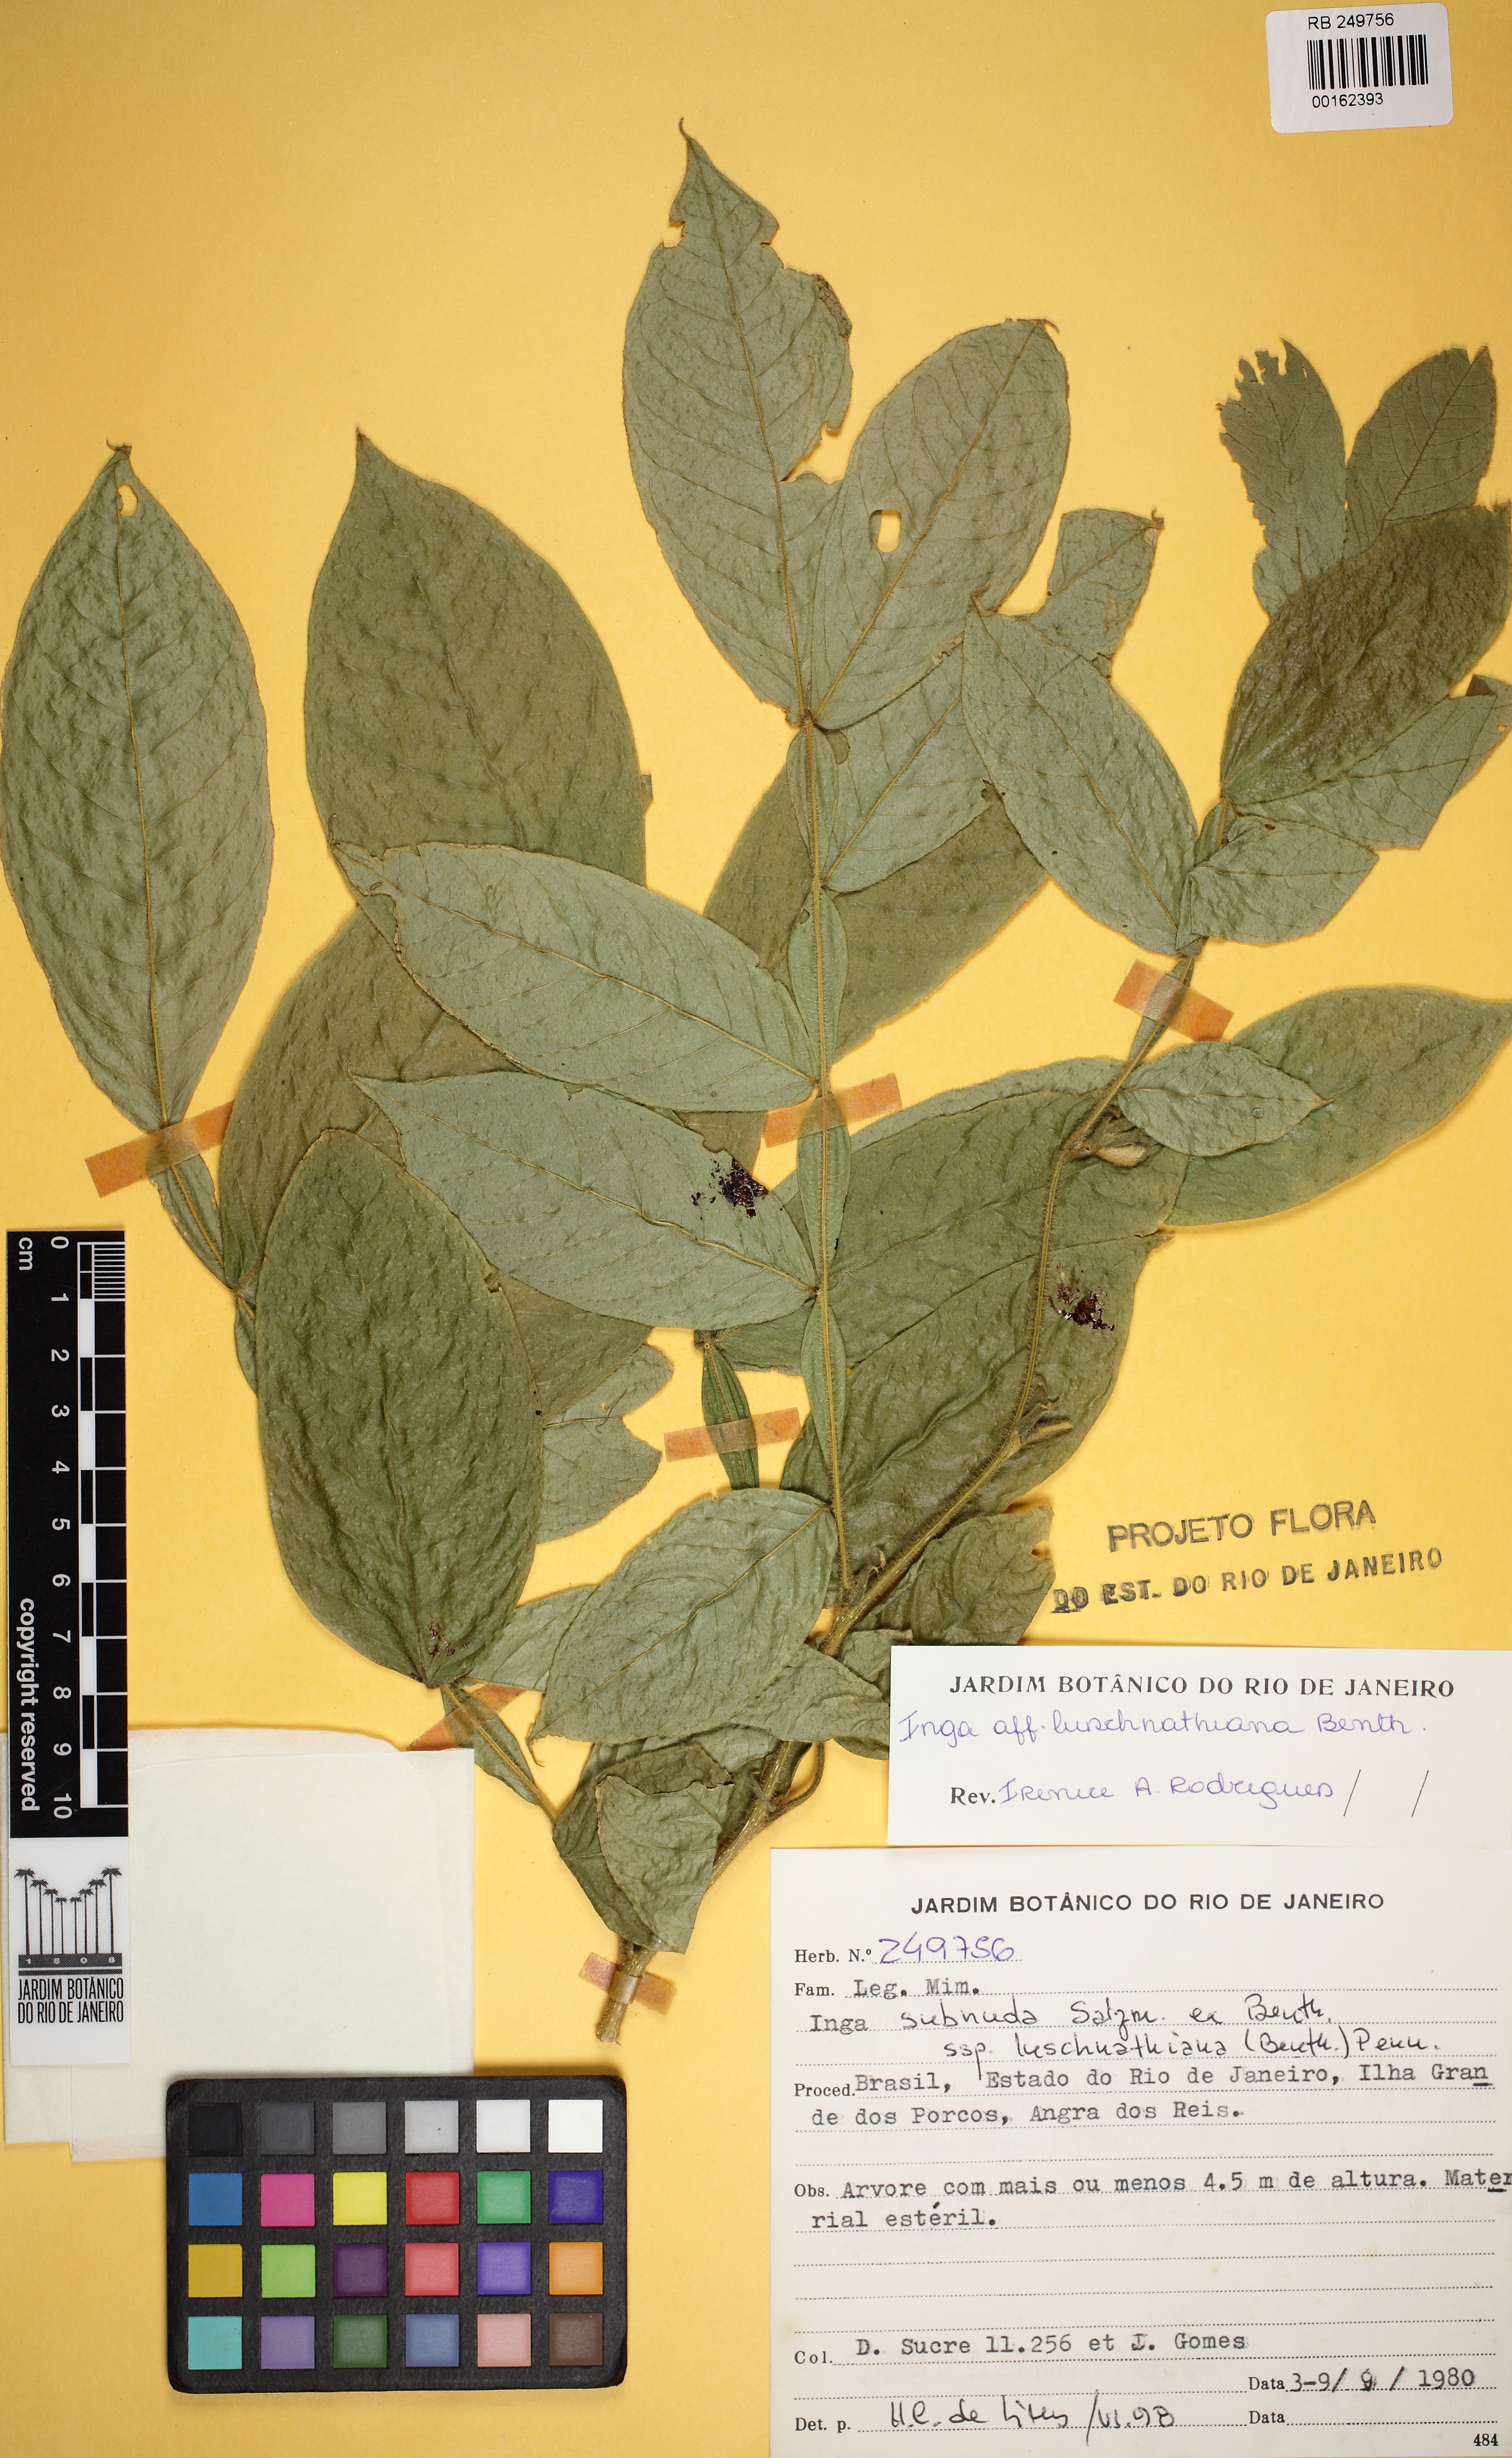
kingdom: Plantae
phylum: Tracheophyta
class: Magnoliopsida
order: Fabales
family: Fabaceae
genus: Inga
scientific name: Inga subnuda
